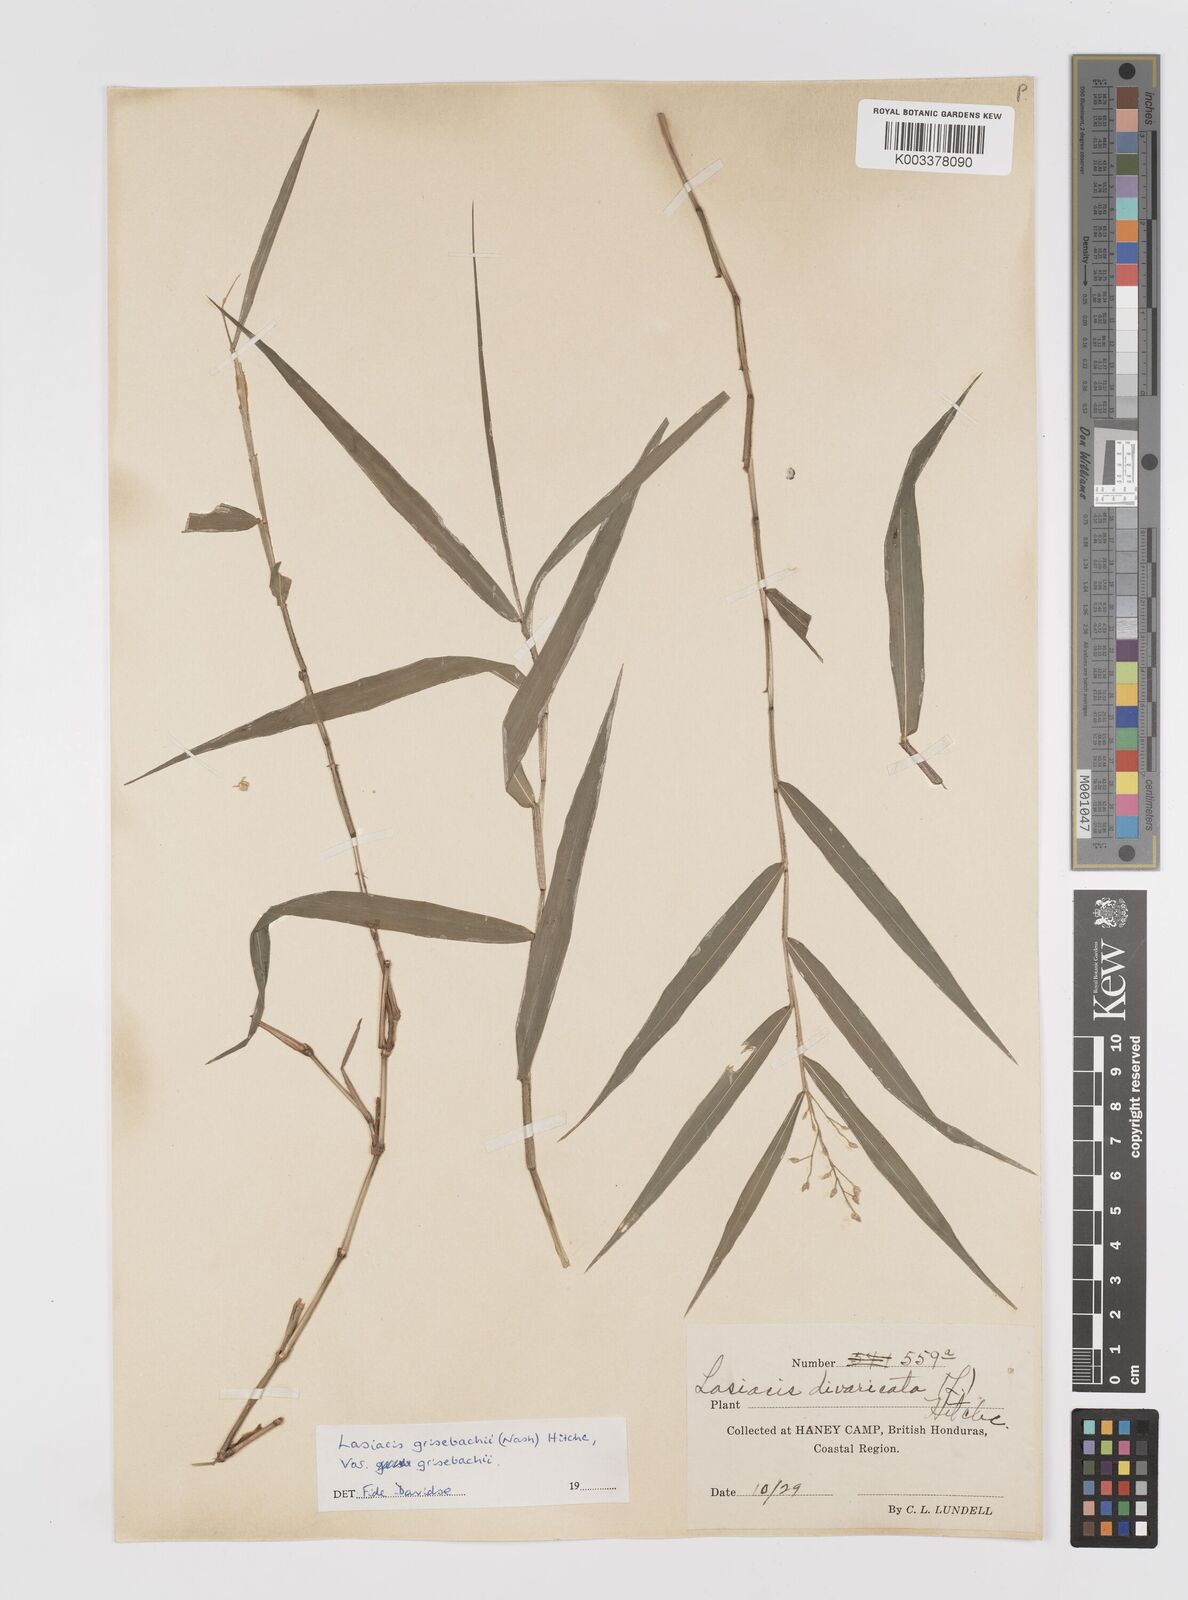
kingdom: Plantae
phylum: Tracheophyta
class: Liliopsida
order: Poales
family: Poaceae
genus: Lasiacis
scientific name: Lasiacis grisebachii
